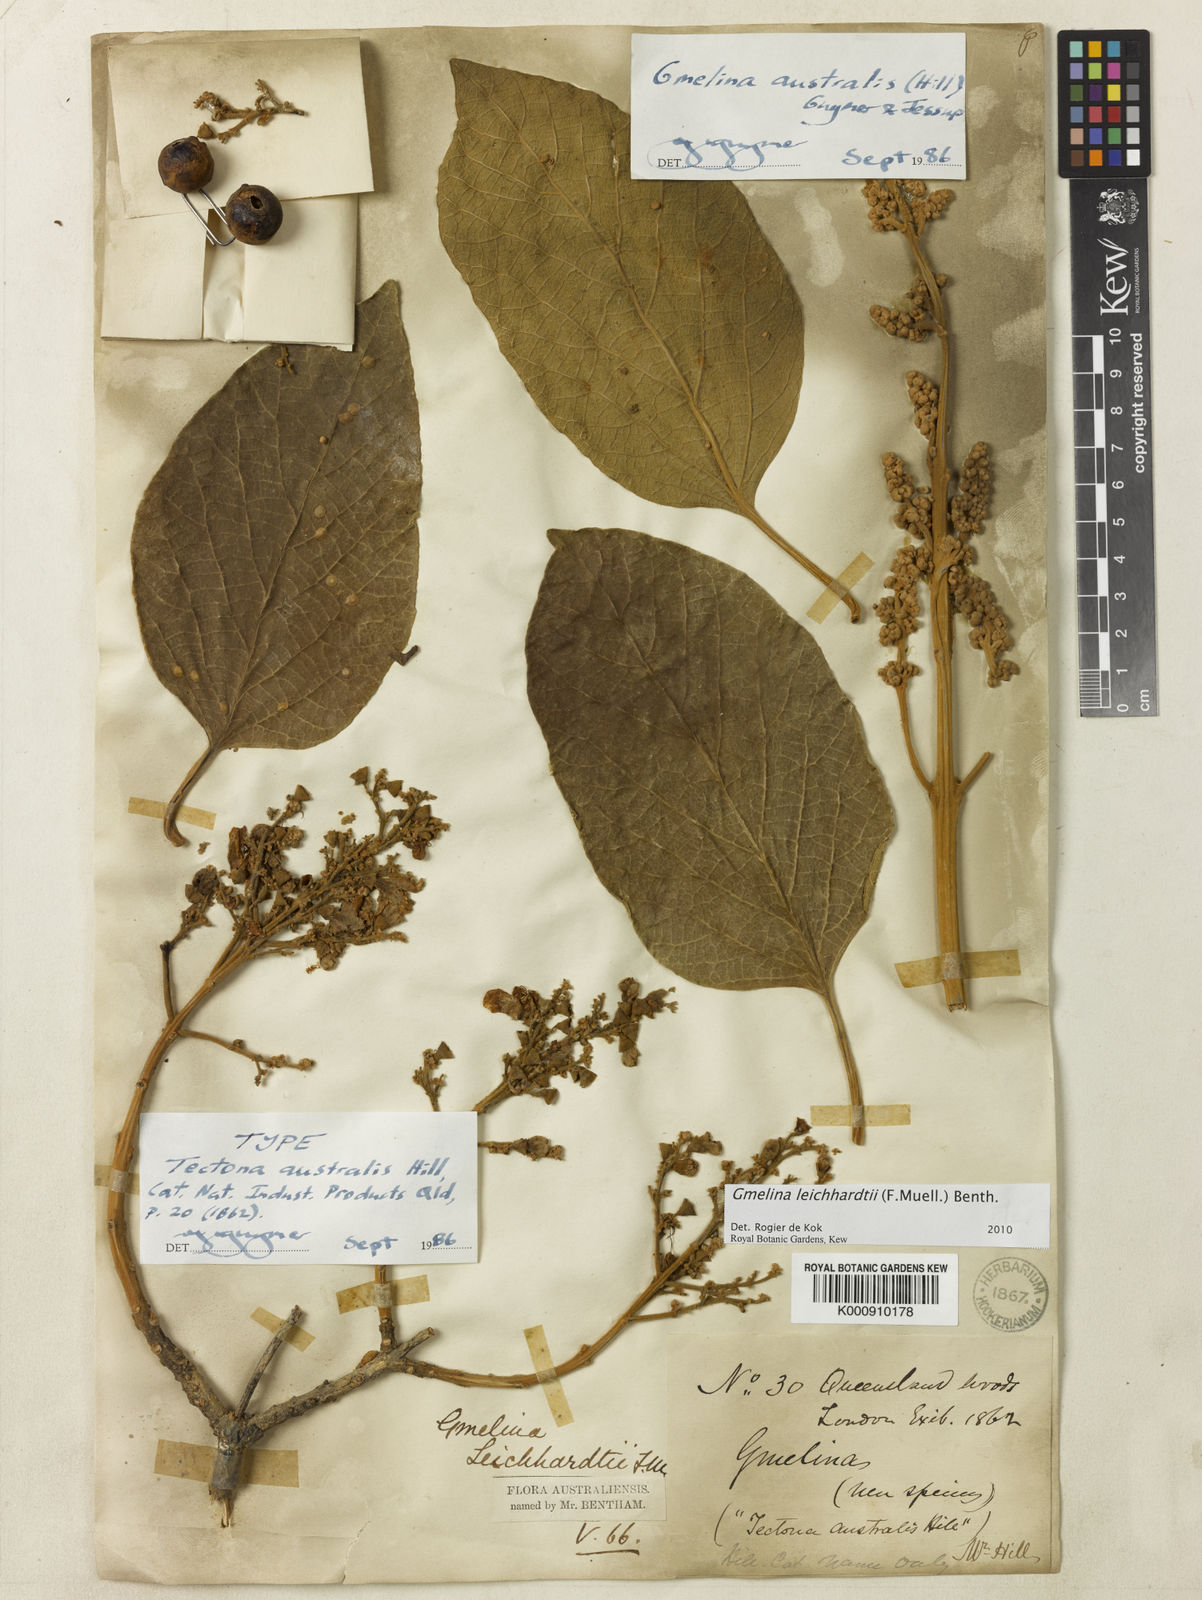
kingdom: Plantae
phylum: Tracheophyta
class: Magnoliopsida
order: Lamiales
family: Lamiaceae
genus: Gmelina
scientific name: Gmelina leichhardtii
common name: Queensland-beech
